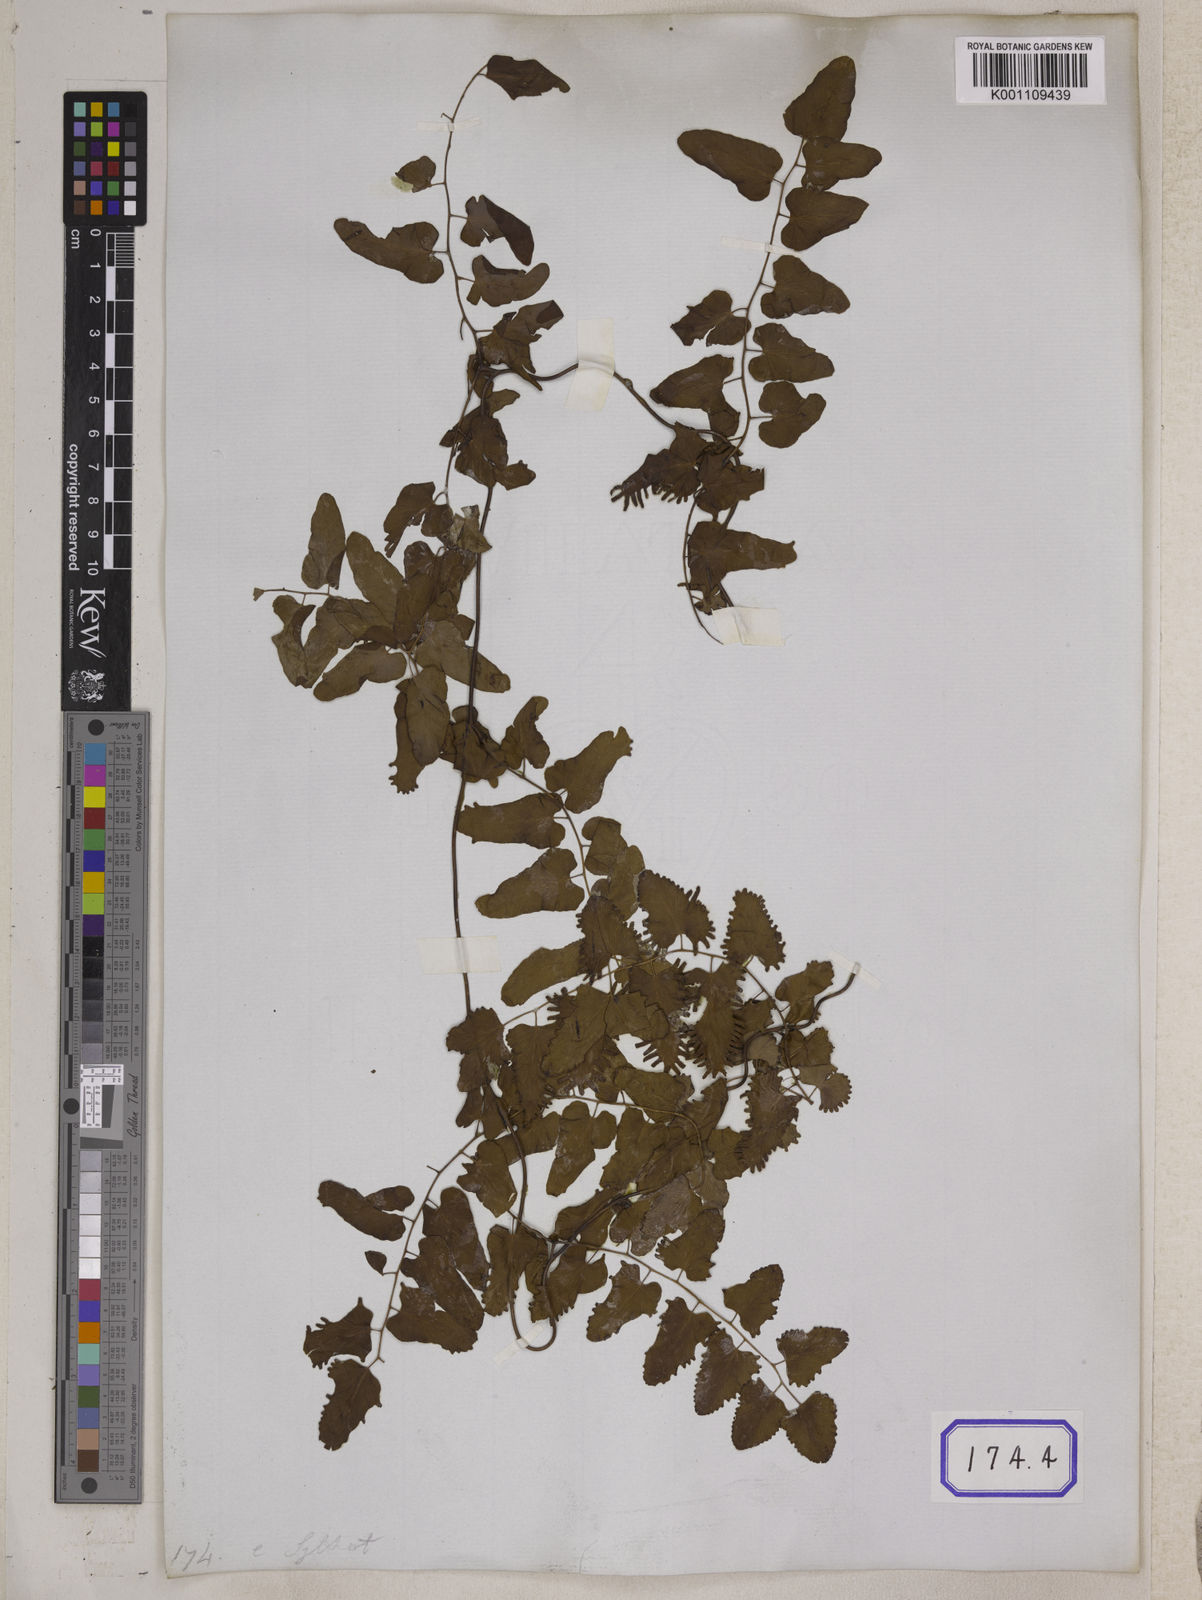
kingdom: Plantae
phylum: Tracheophyta
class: Polypodiopsida
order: Schizaeales
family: Lygodiaceae
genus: Lygodium
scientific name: Lygodium
